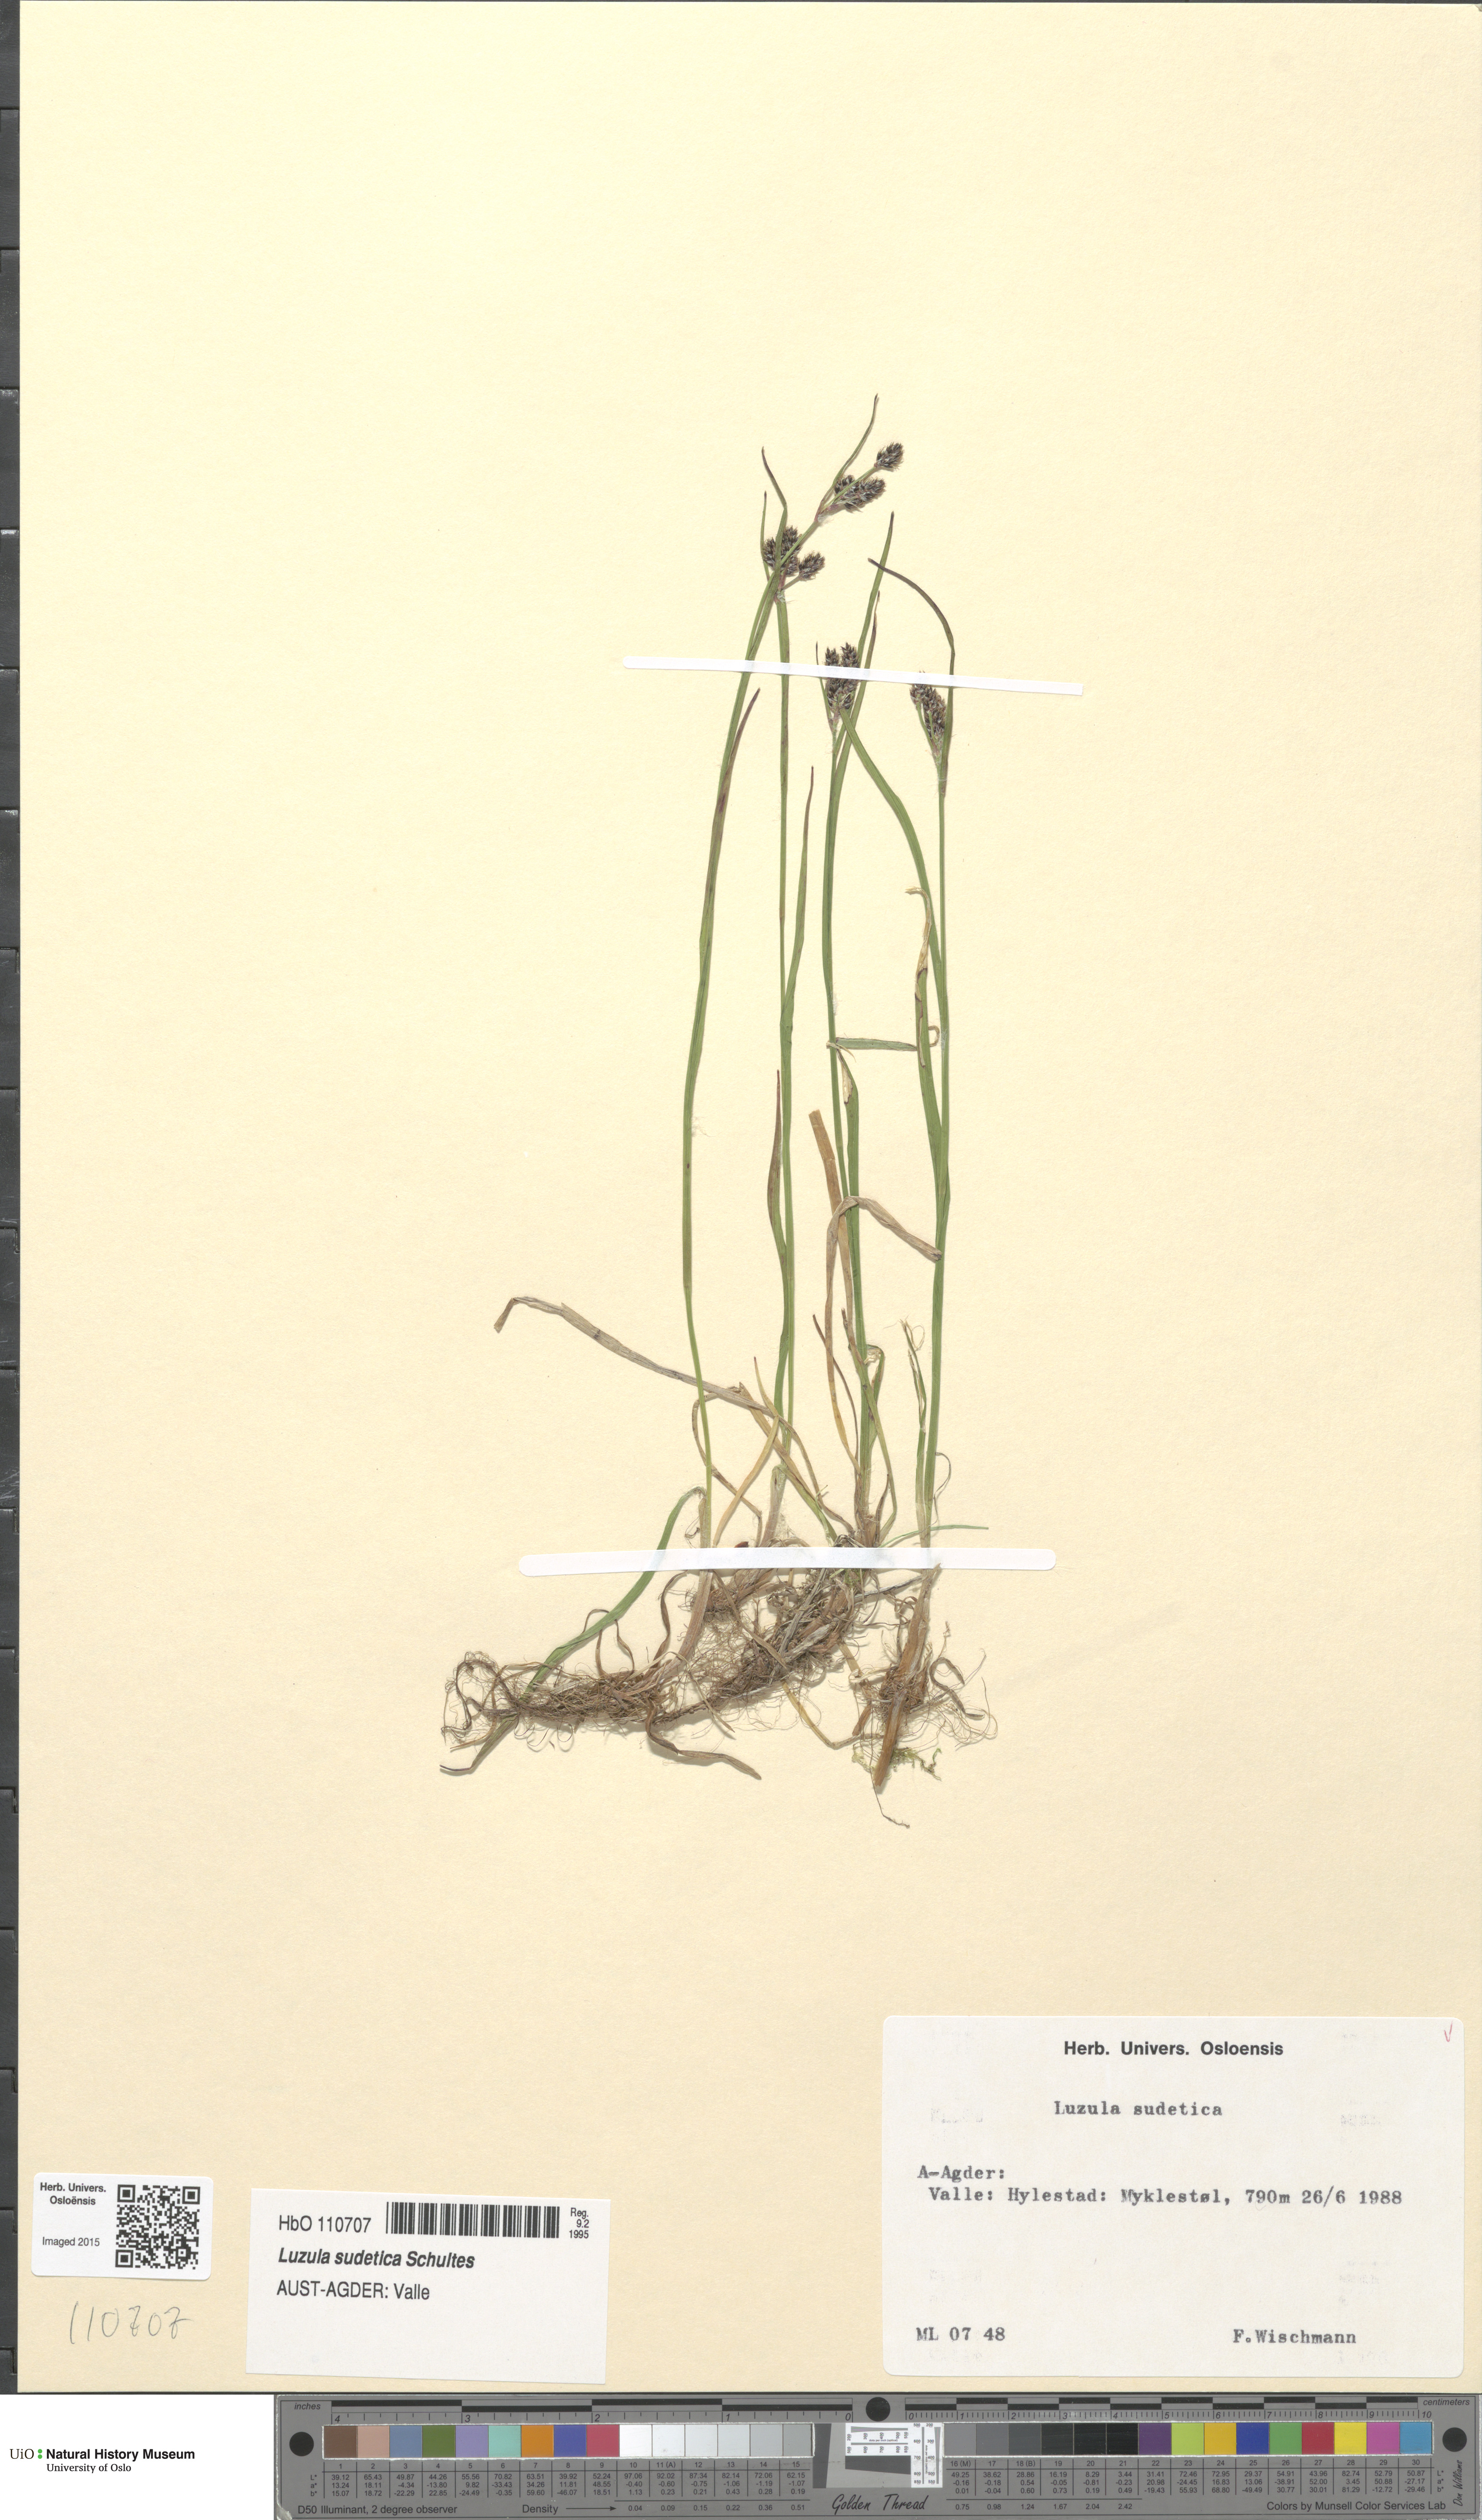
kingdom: Plantae
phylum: Tracheophyta
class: Liliopsida
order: Poales
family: Juncaceae
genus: Luzula
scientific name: Luzula sudetica
